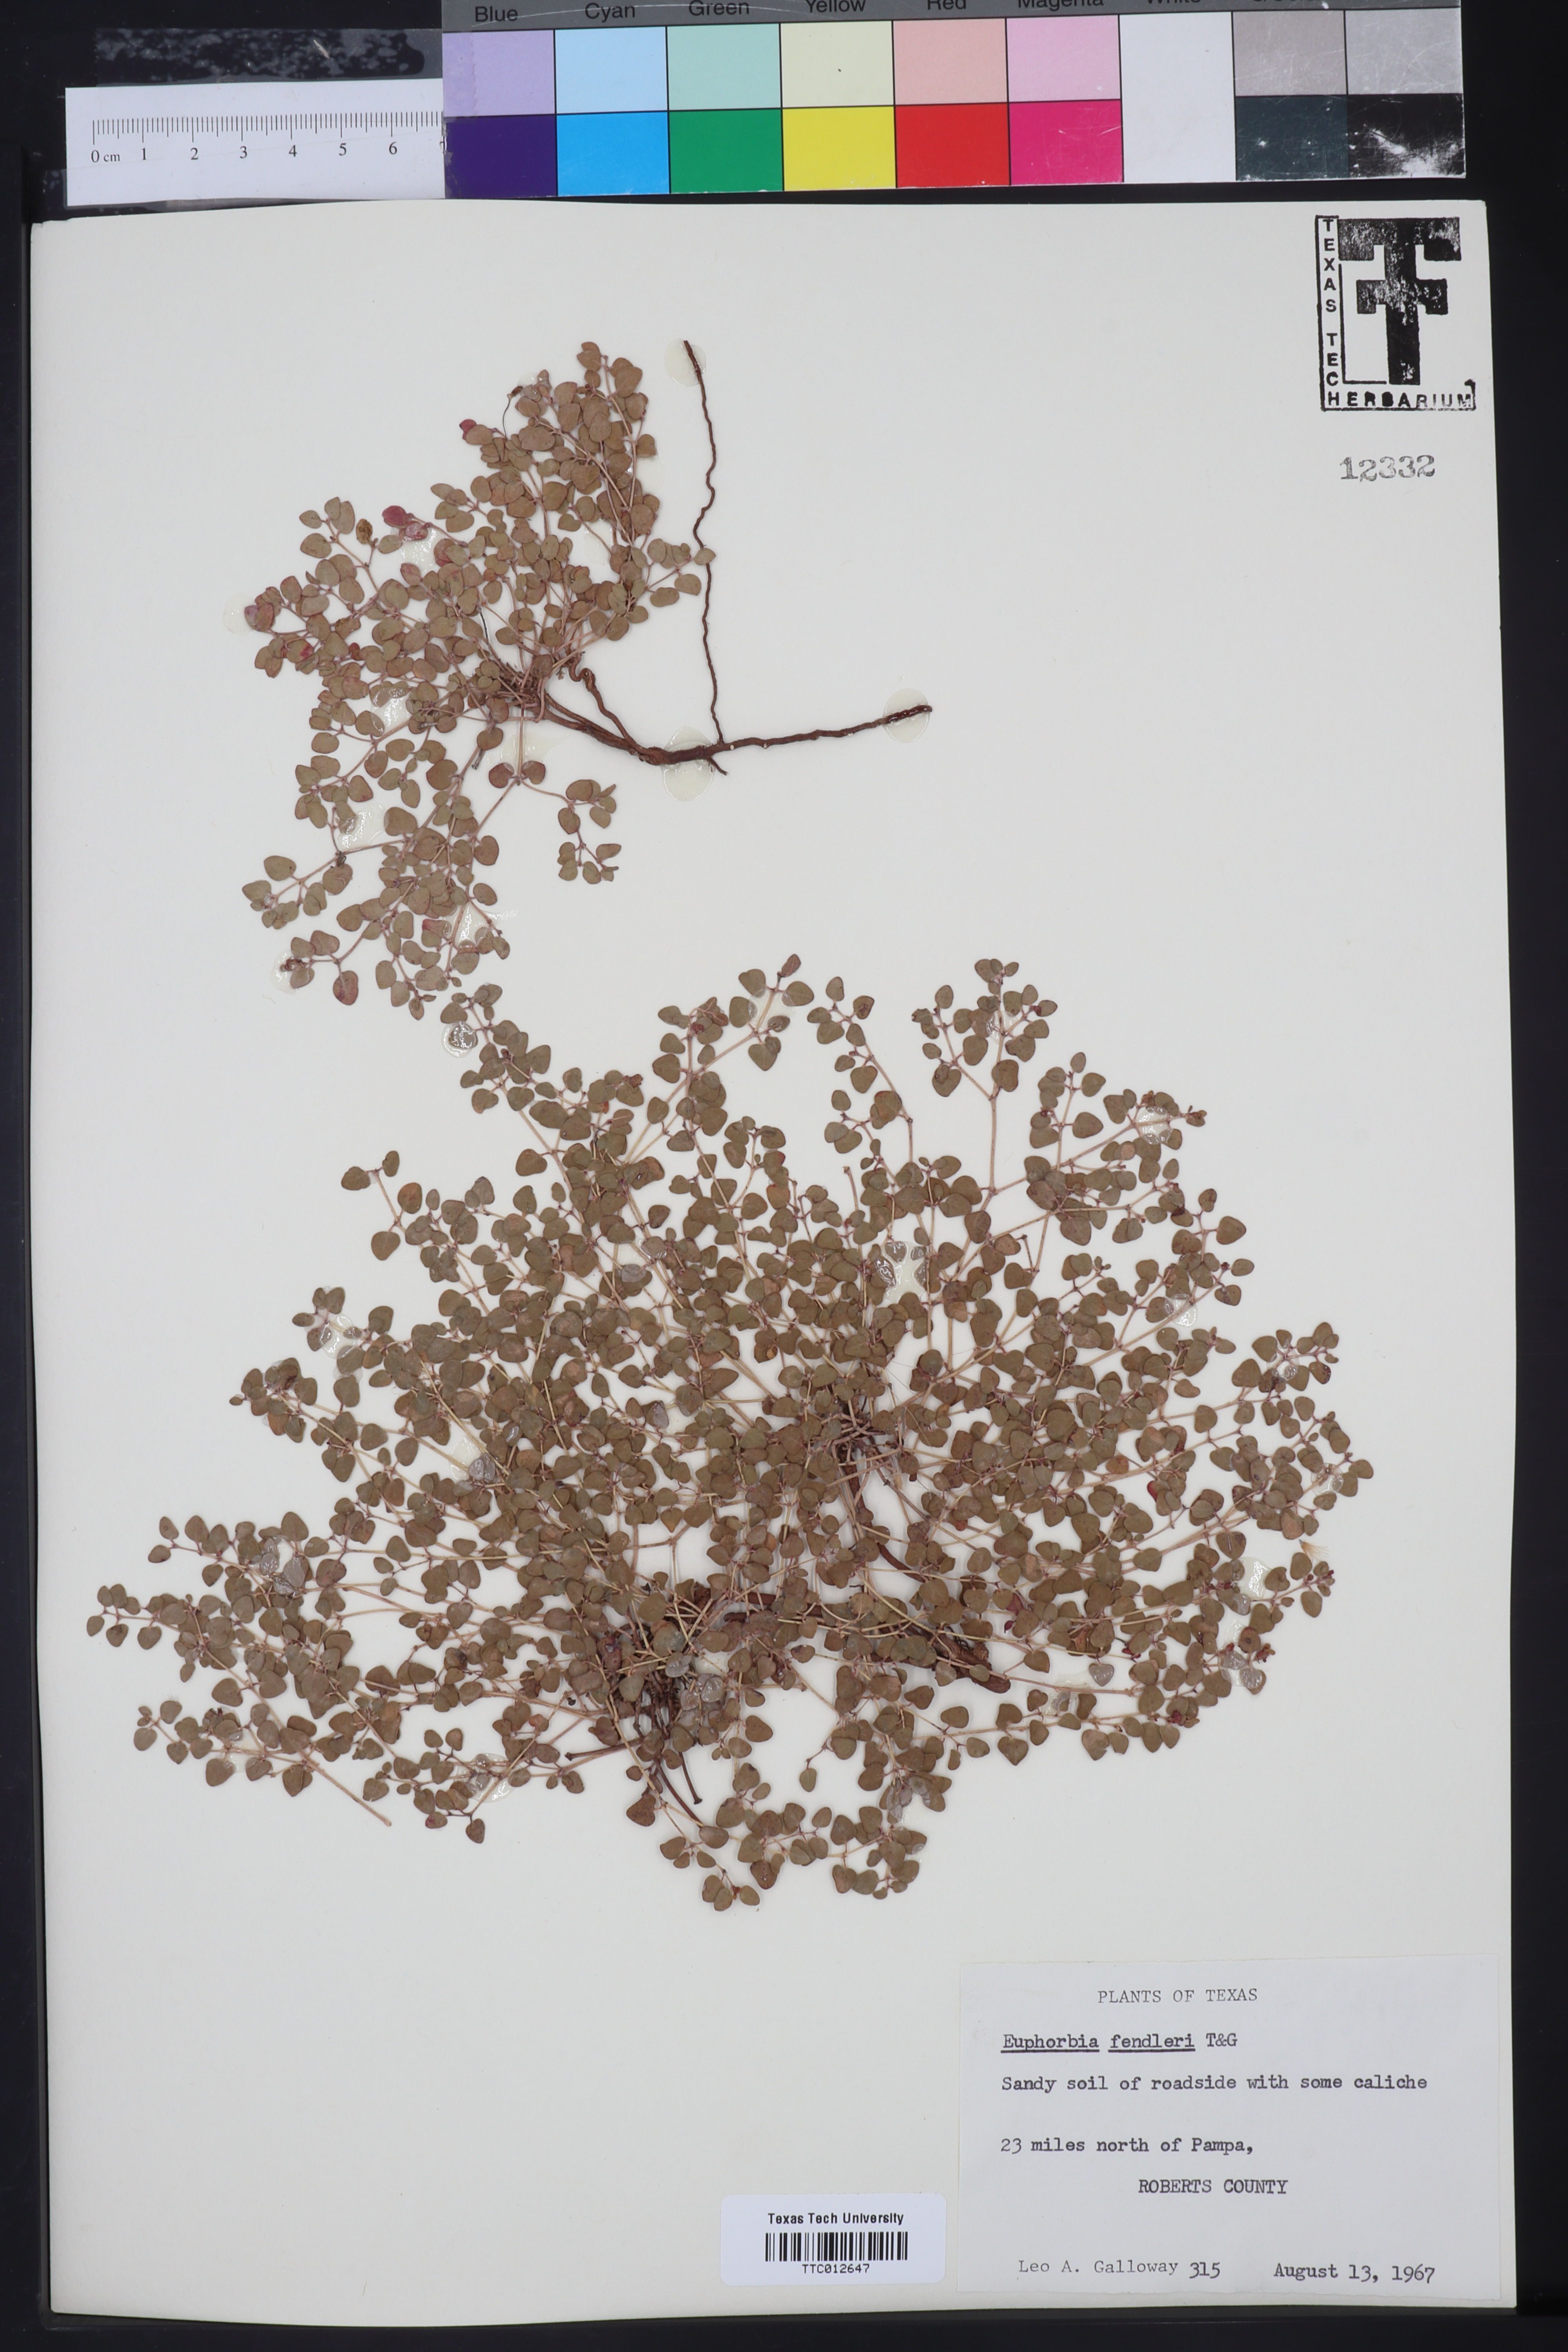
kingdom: Plantae
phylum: Tracheophyta
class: Magnoliopsida
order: Malpighiales
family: Euphorbiaceae
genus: Euphorbia
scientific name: Euphorbia fendleri
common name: Fendler's euphorbia
